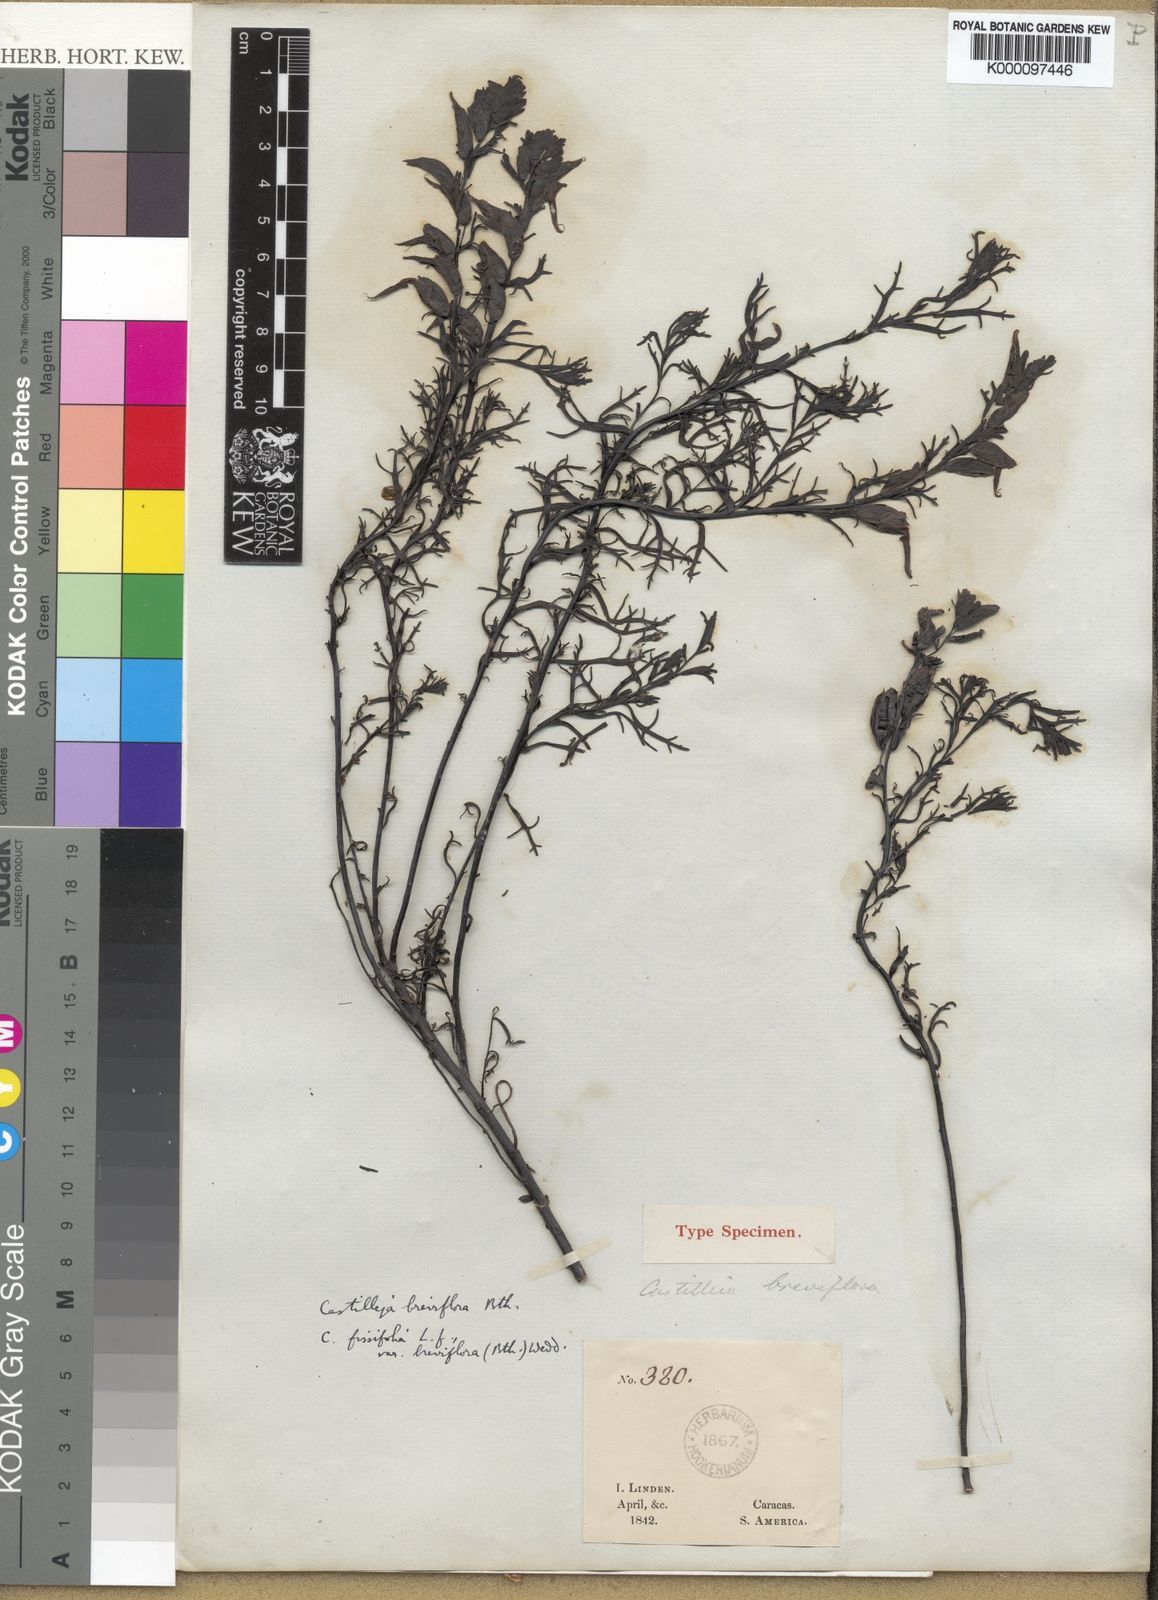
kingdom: Plantae
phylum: Tracheophyta
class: Magnoliopsida
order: Lamiales
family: Orobanchaceae
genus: Castilleja
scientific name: Castilleja fissifolia
